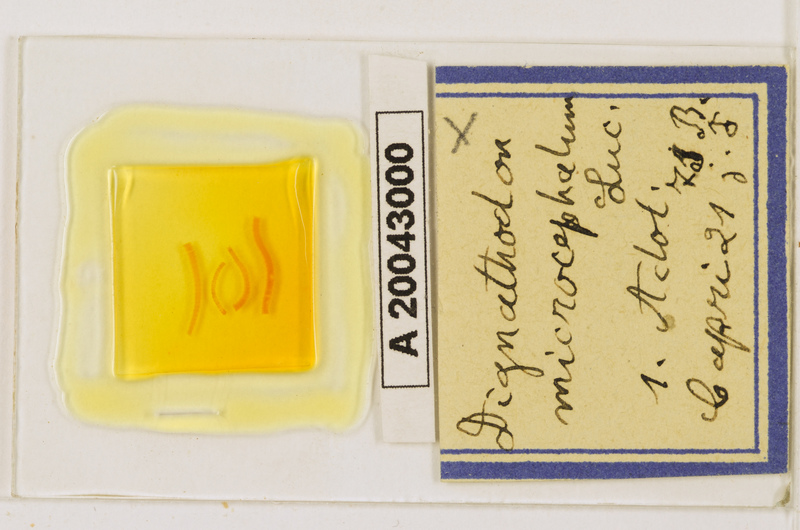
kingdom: Animalia
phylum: Arthropoda
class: Chilopoda
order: Geophilomorpha
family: Dignathodontidae
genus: Dignathodon
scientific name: Dignathodon microcephalus
